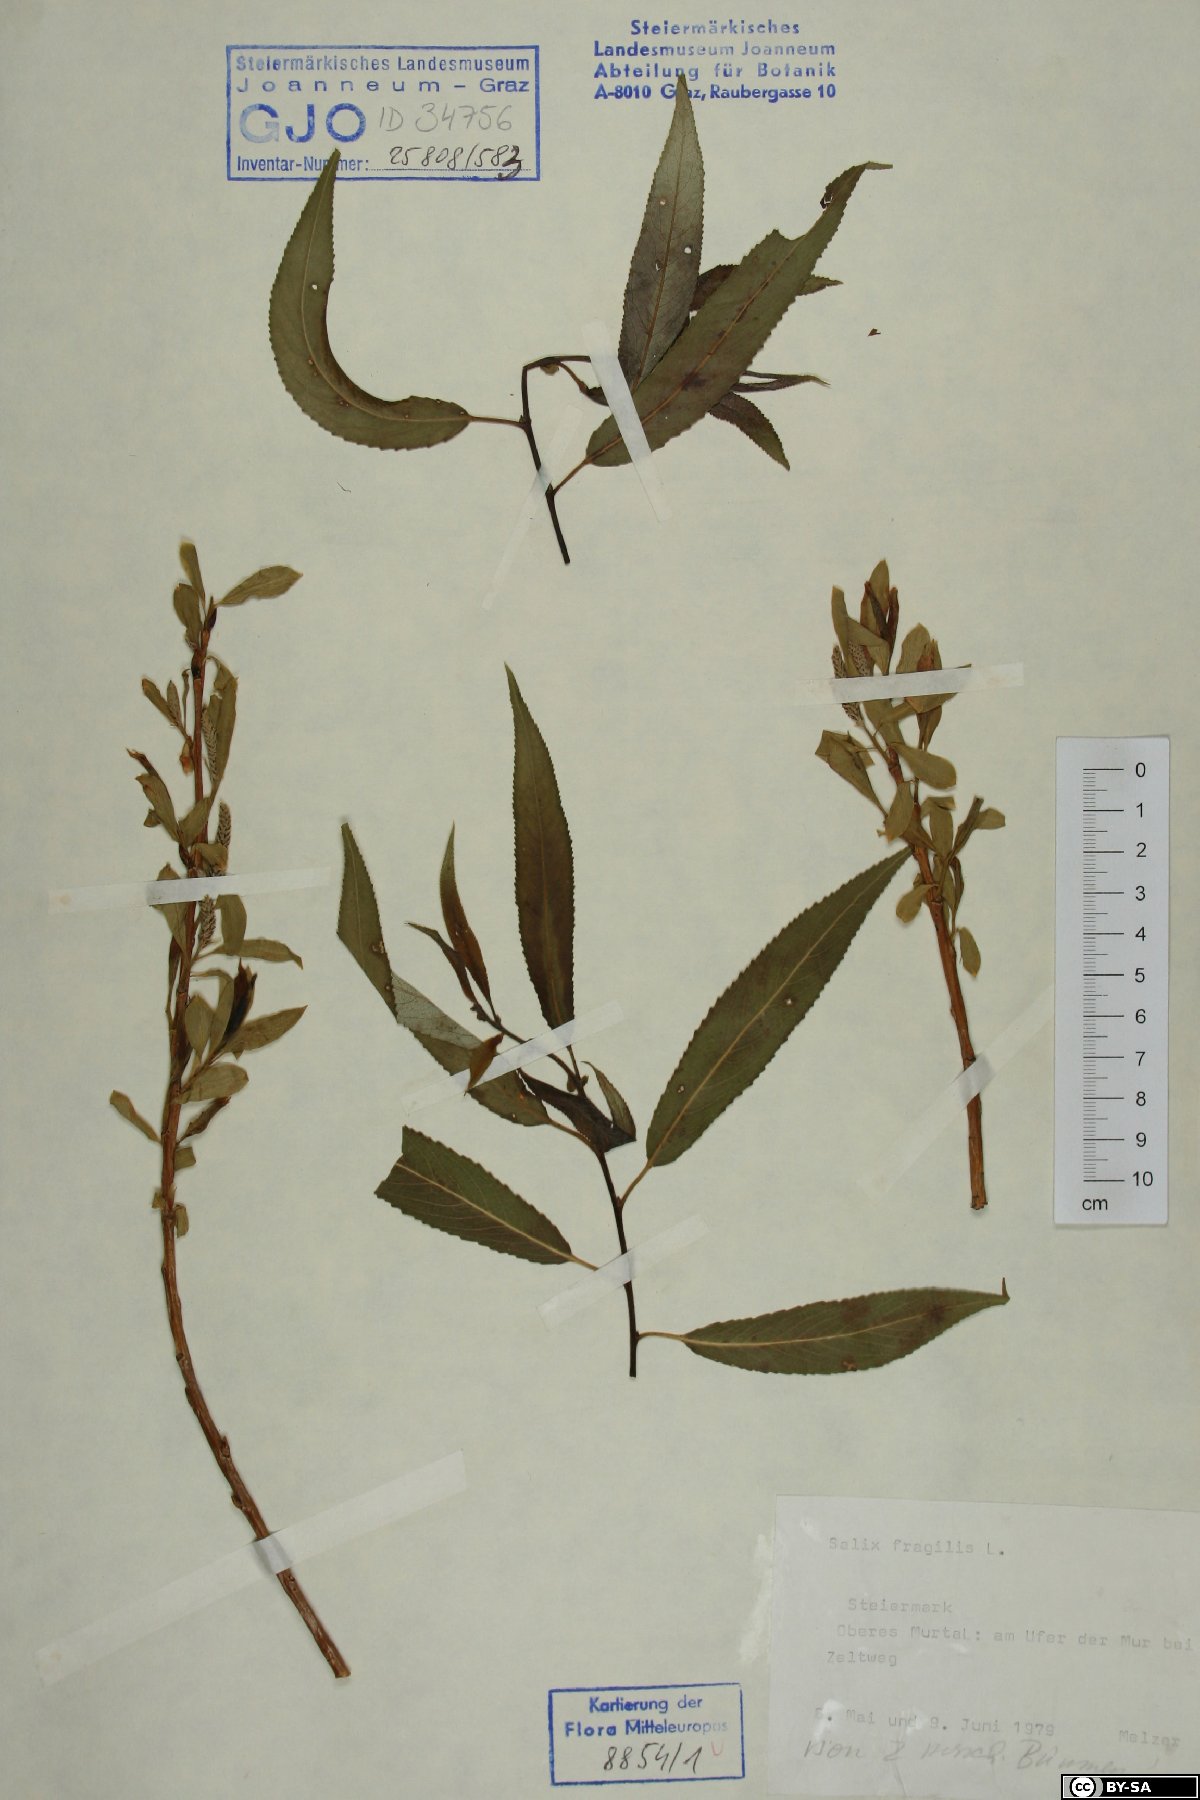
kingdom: Plantae
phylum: Tracheophyta
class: Magnoliopsida
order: Malpighiales
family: Salicaceae
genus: Salix
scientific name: Salix fragilis
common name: Crack willow
